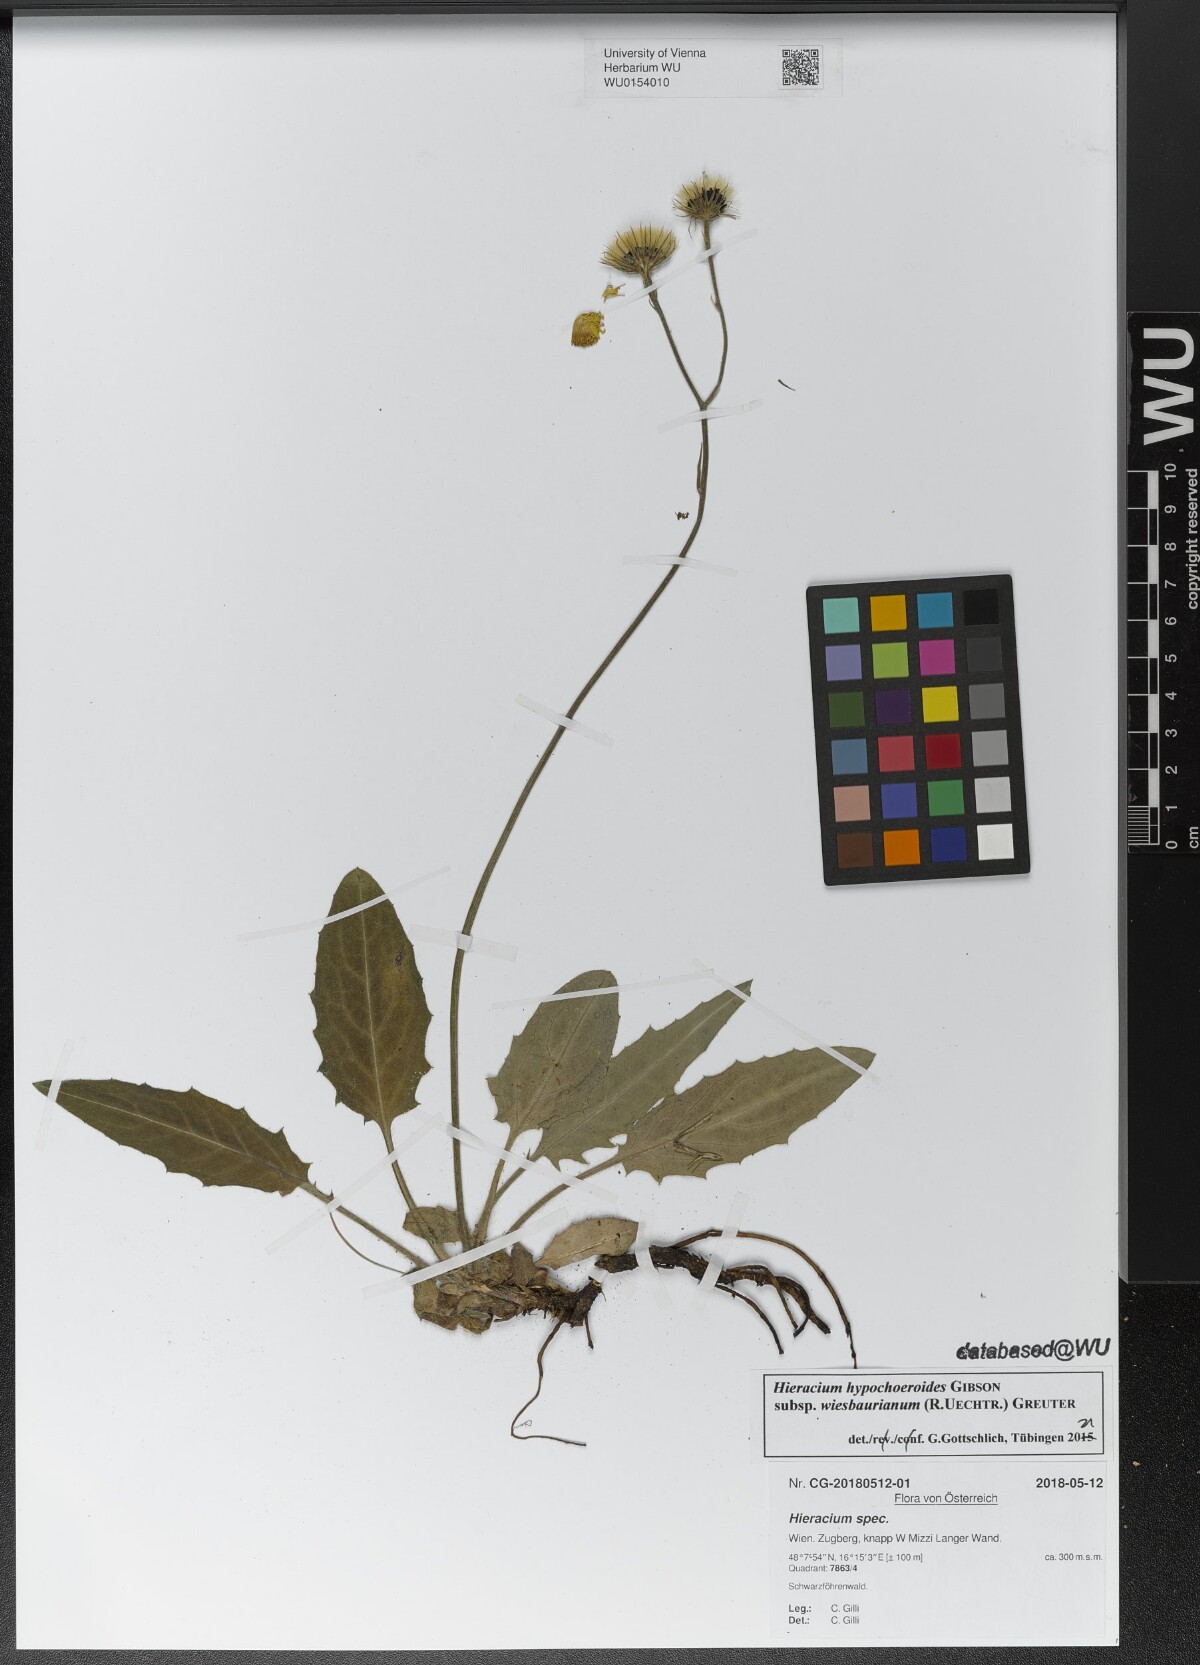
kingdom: Plantae
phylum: Tracheophyta
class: Magnoliopsida
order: Asterales
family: Asteraceae
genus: Hieracium
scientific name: Hieracium hypochoeroides
